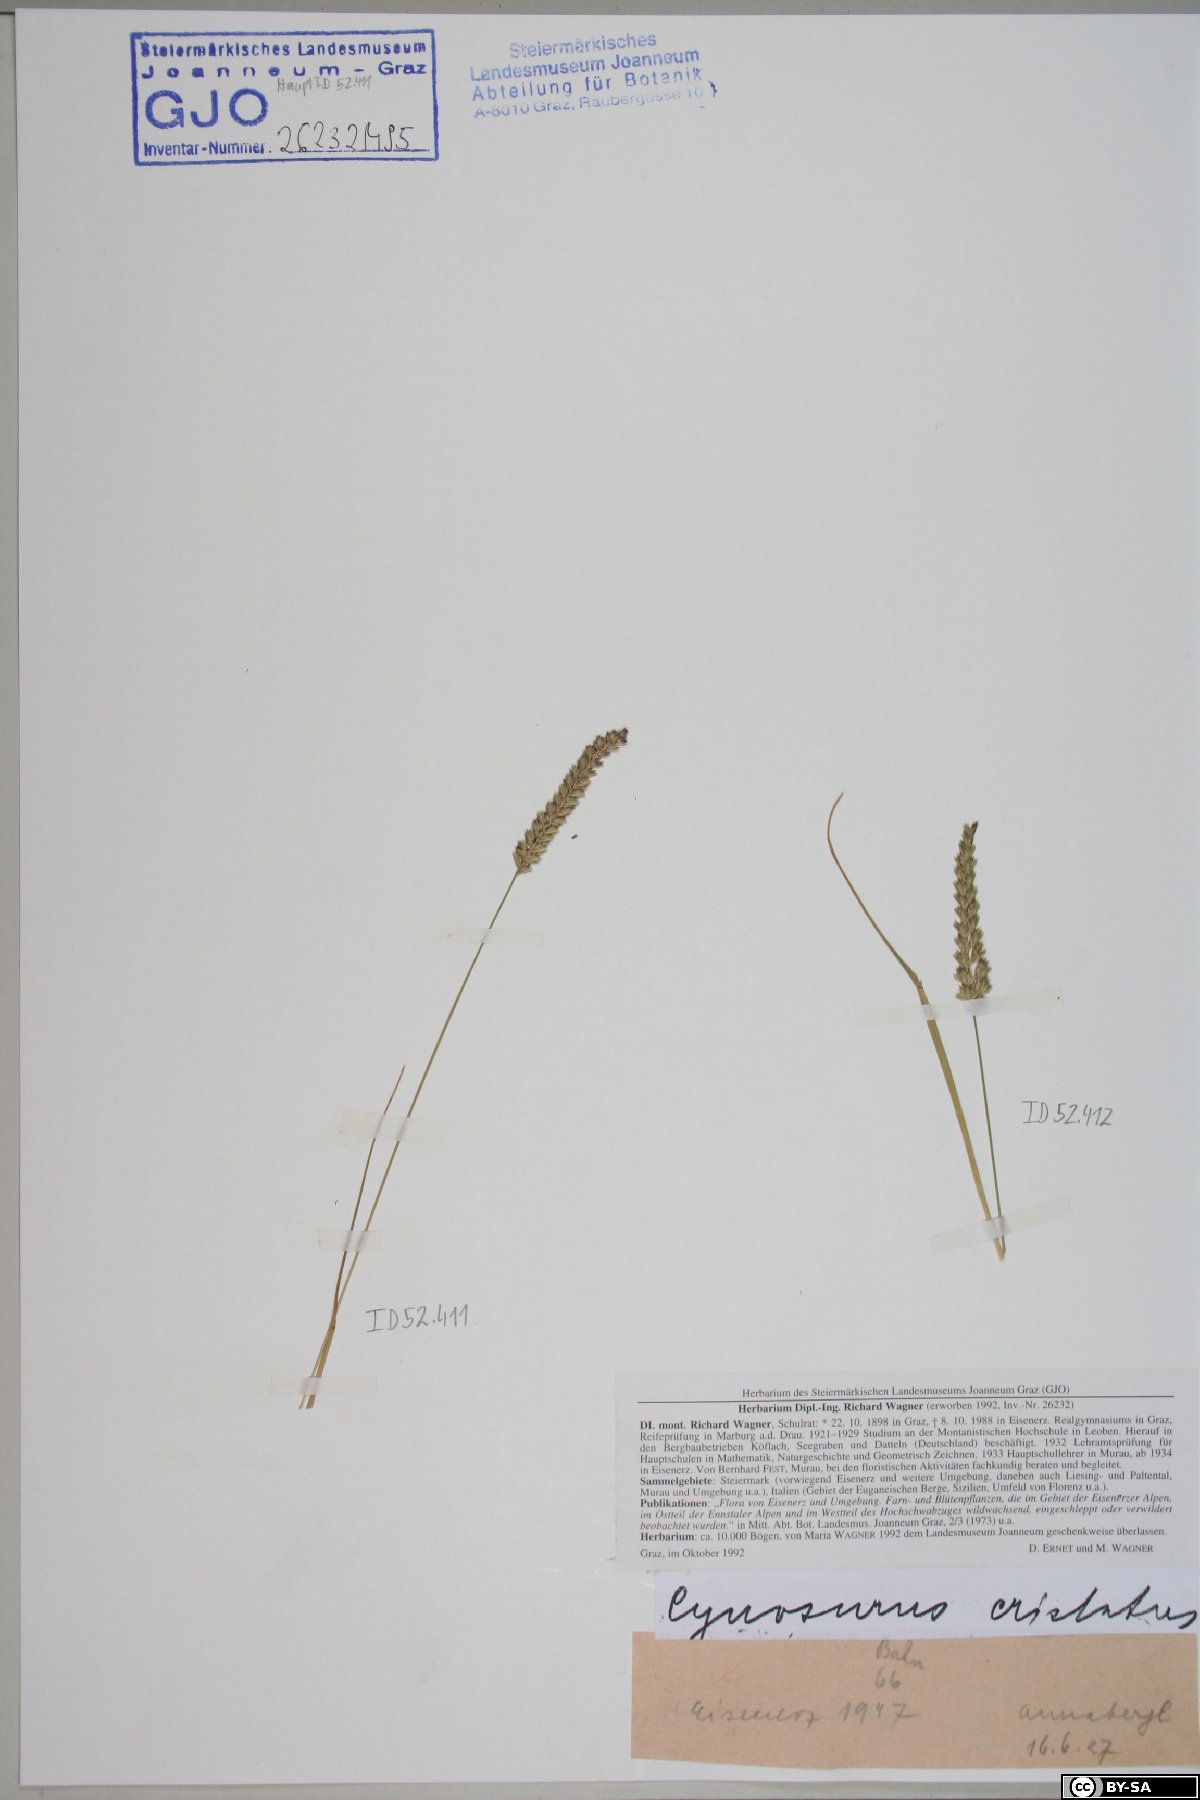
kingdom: Plantae
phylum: Tracheophyta
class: Liliopsida
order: Poales
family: Poaceae
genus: Cynosurus
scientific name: Cynosurus cristatus
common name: Crested dog's-tail
